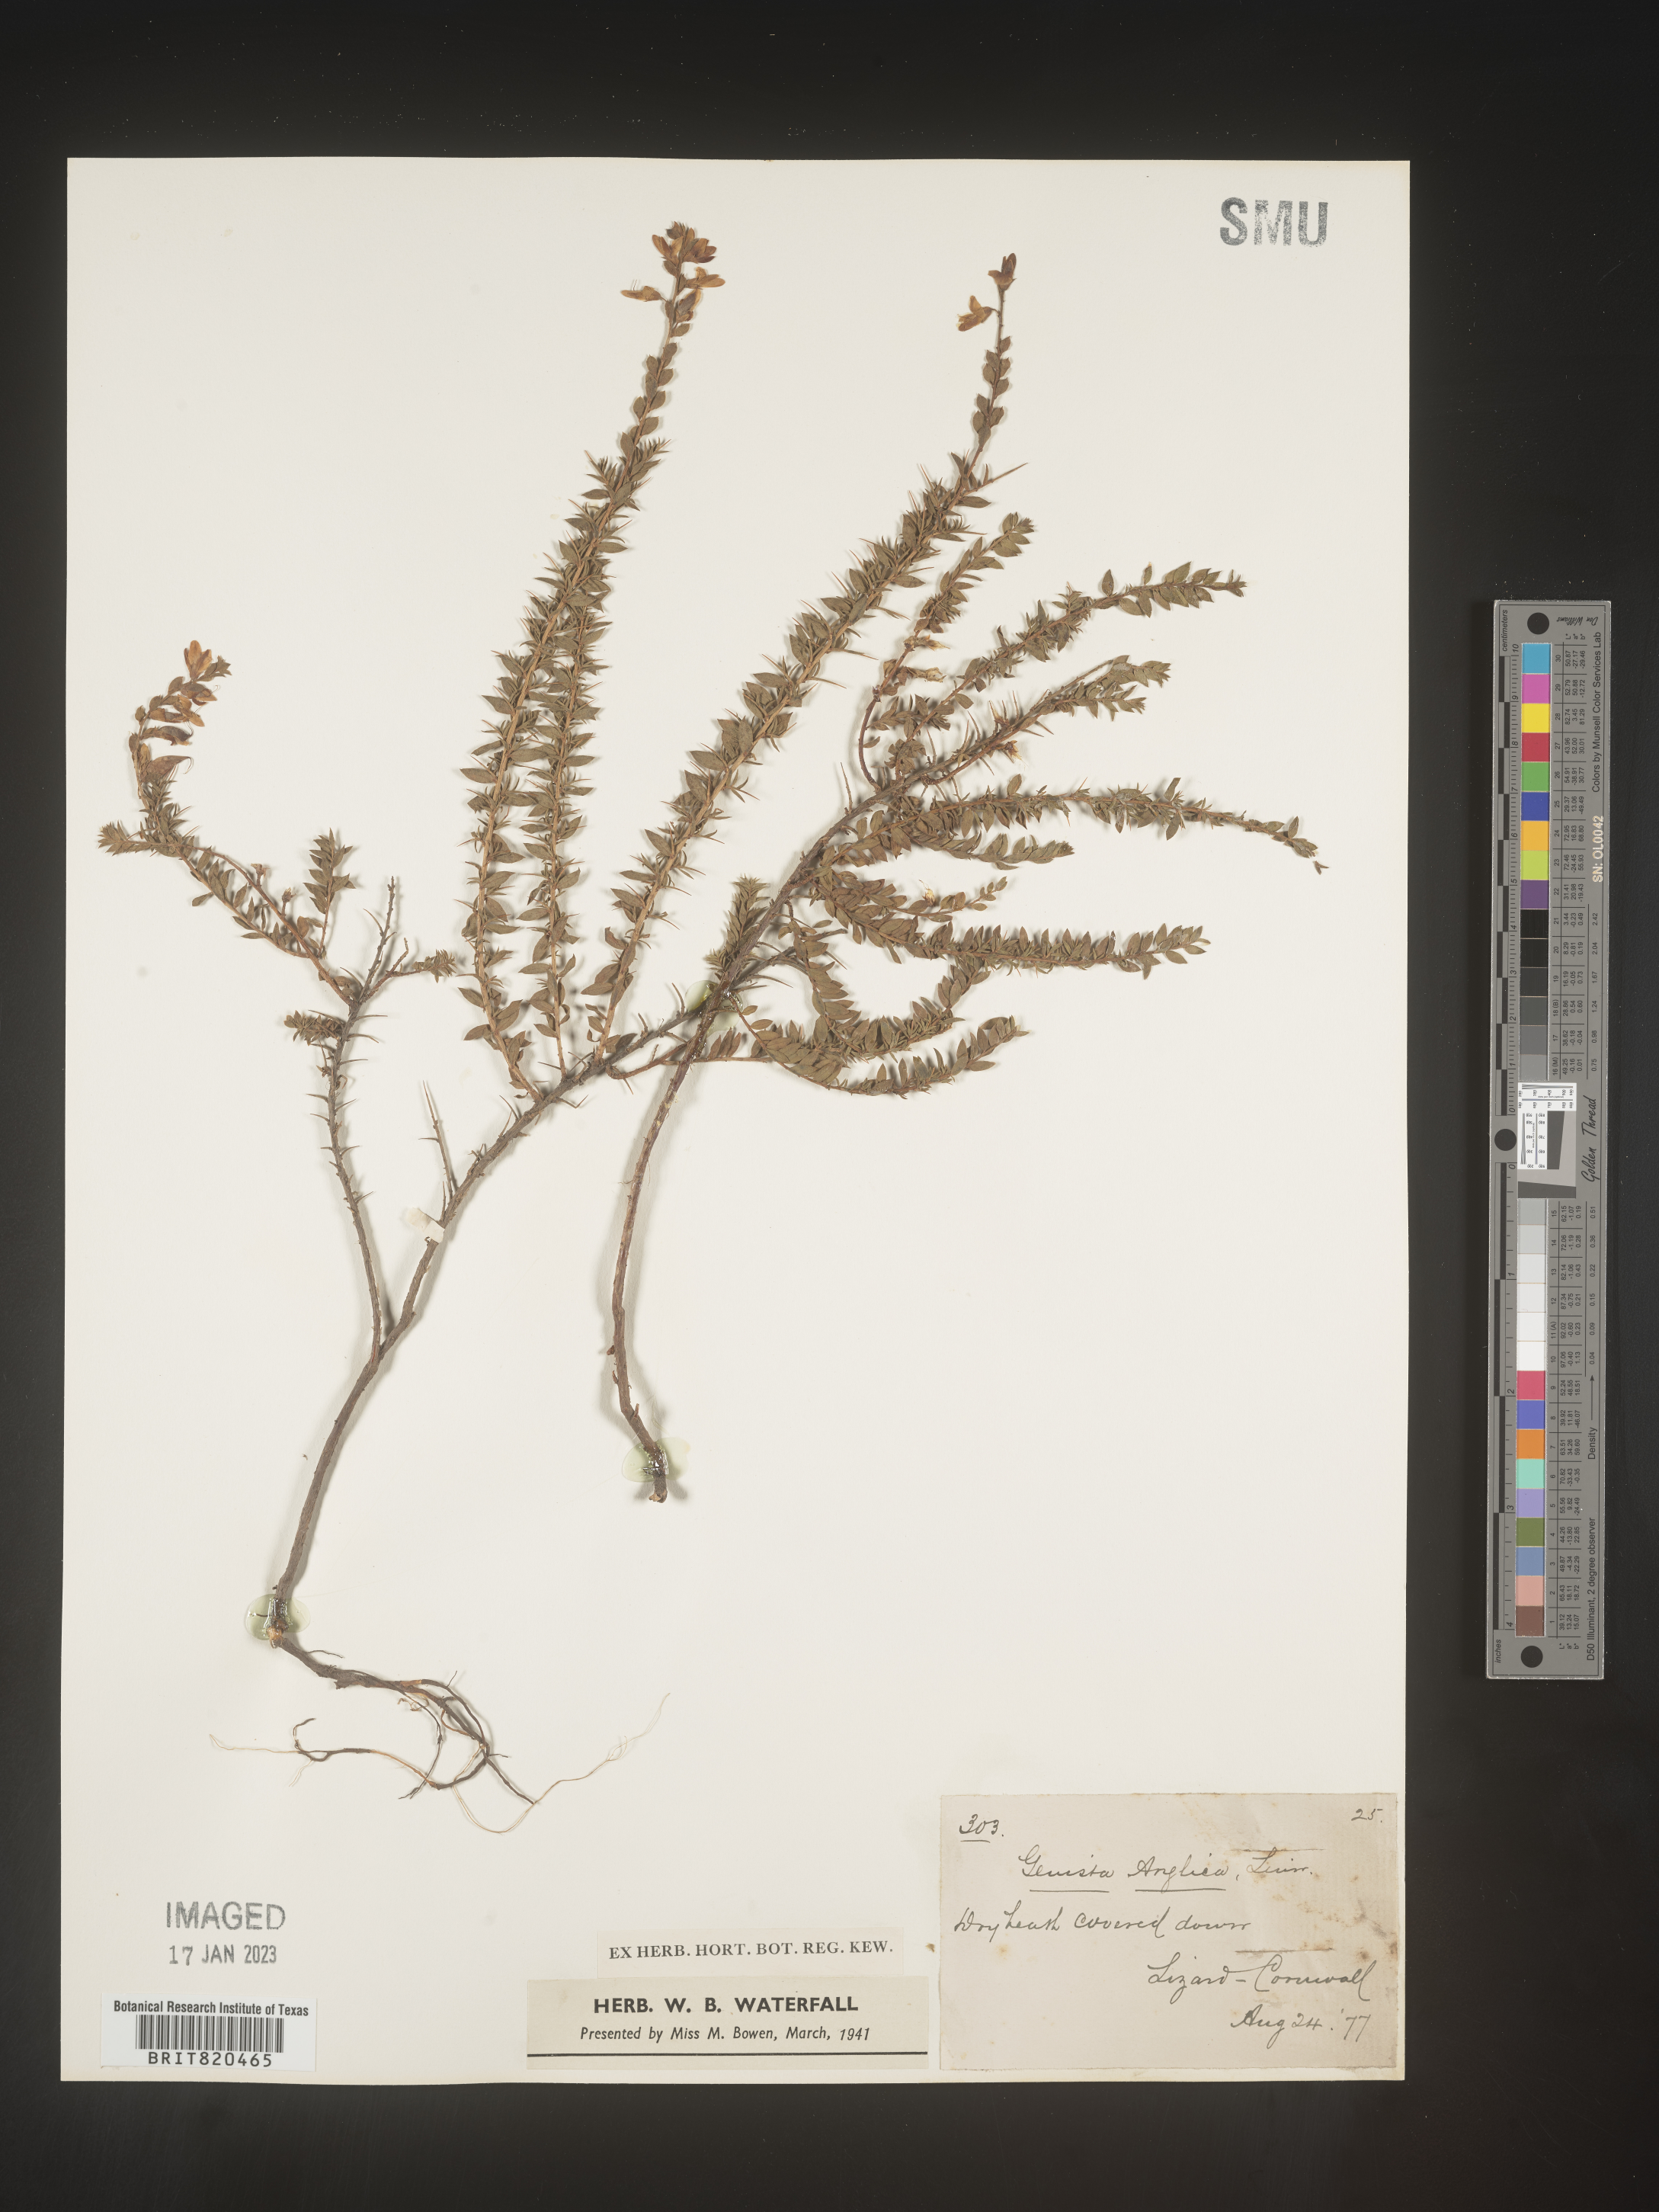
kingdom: Plantae
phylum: Tracheophyta
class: Magnoliopsida
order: Fabales
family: Fabaceae
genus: Genista
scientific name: Genista
